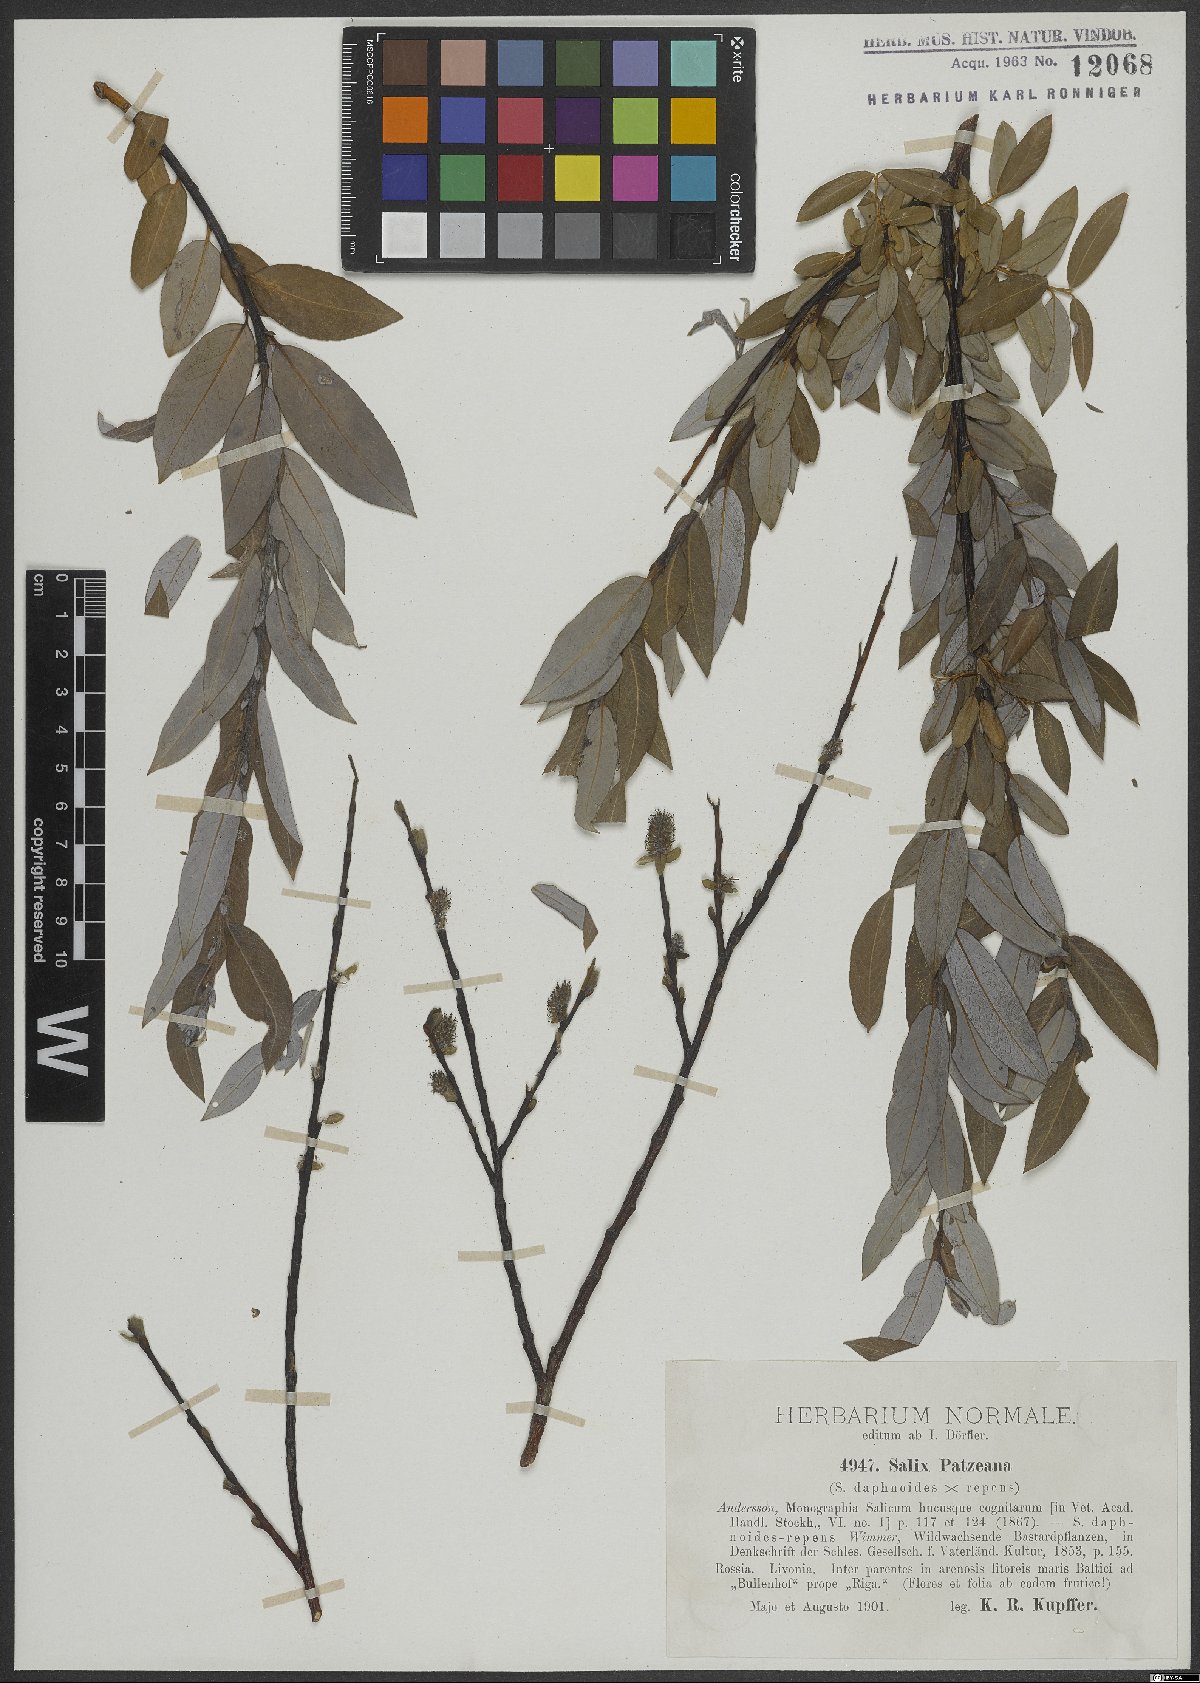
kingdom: Plantae
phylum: Tracheophyta
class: Magnoliopsida
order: Malpighiales
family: Salicaceae
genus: Salix
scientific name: Salix daphnoides
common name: European violet-willow
